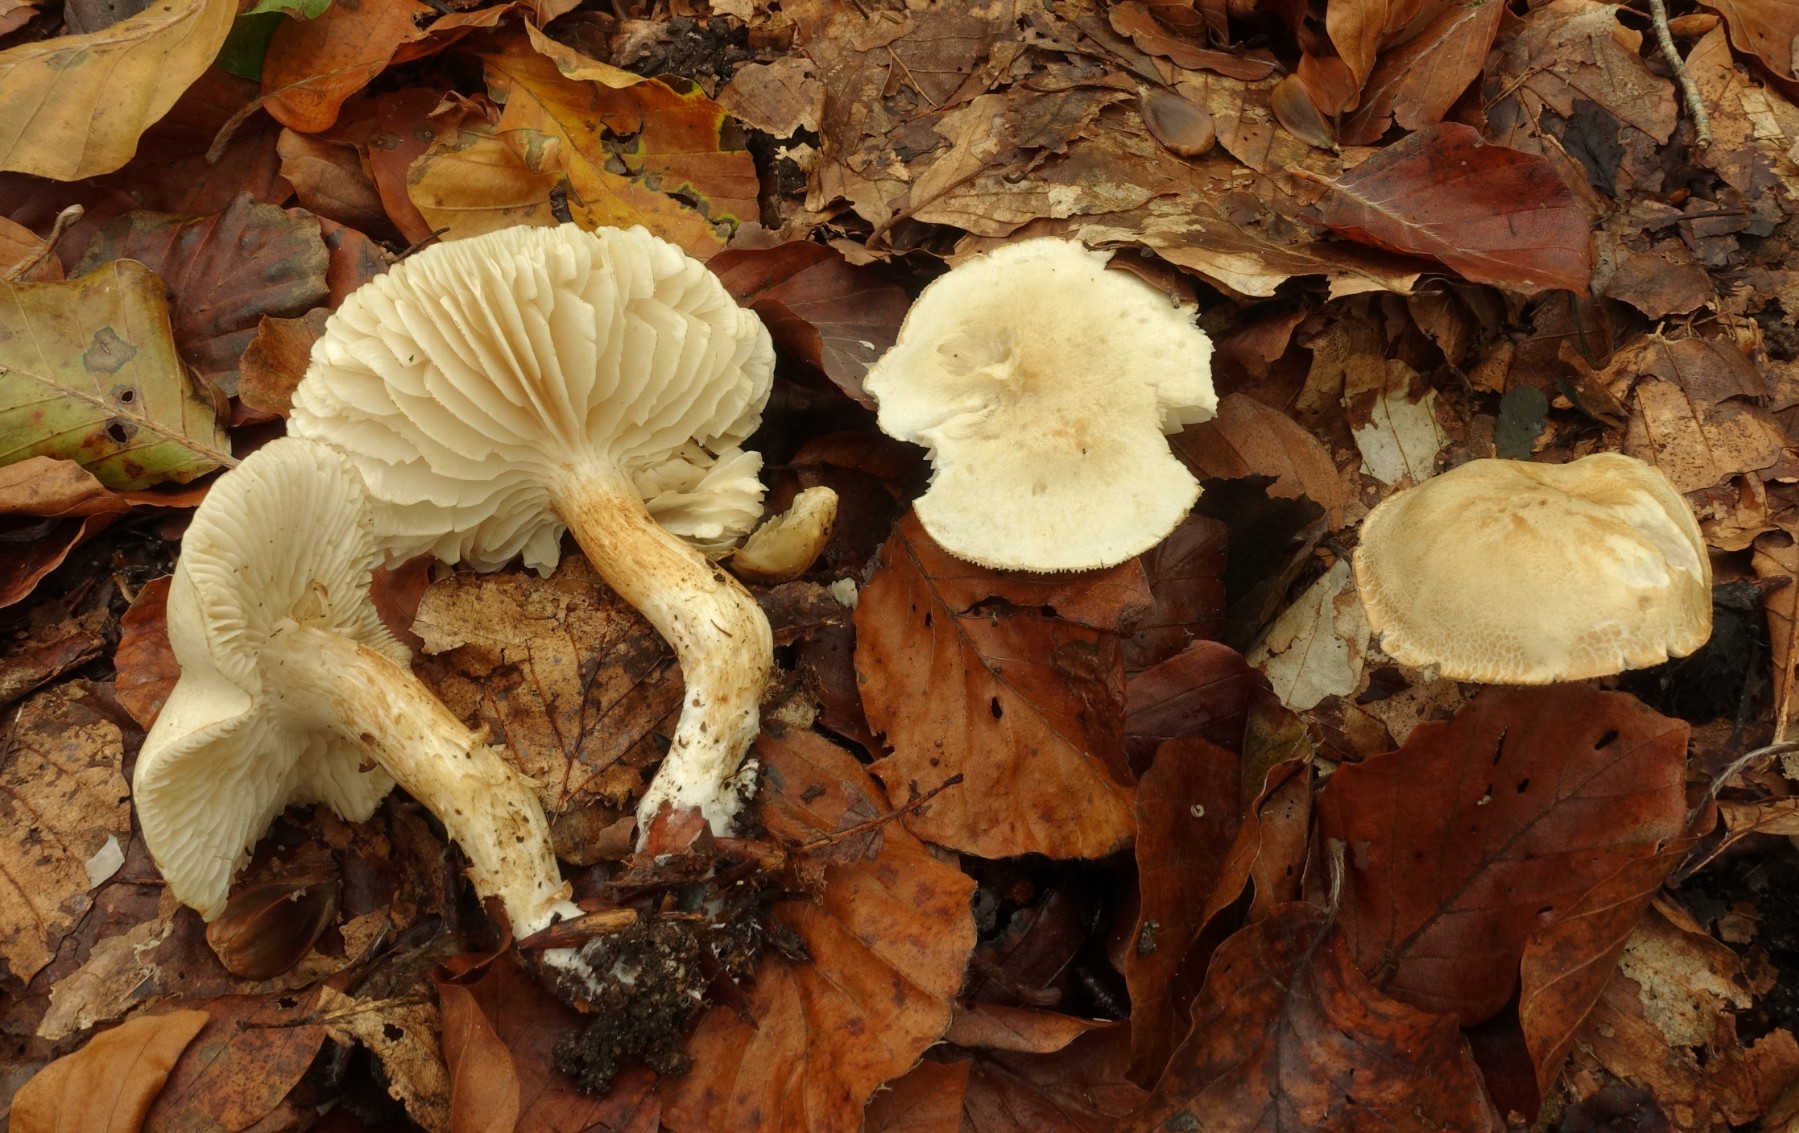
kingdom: Fungi
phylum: Basidiomycota
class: Agaricomycetes
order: Agaricales
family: Tricholomataceae
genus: Tricholoma
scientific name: Tricholoma lascivum
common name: stinkende ridderhat
